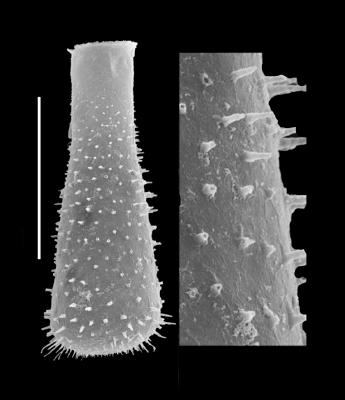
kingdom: Protozoa
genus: Belonechitina
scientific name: Belonechitina
